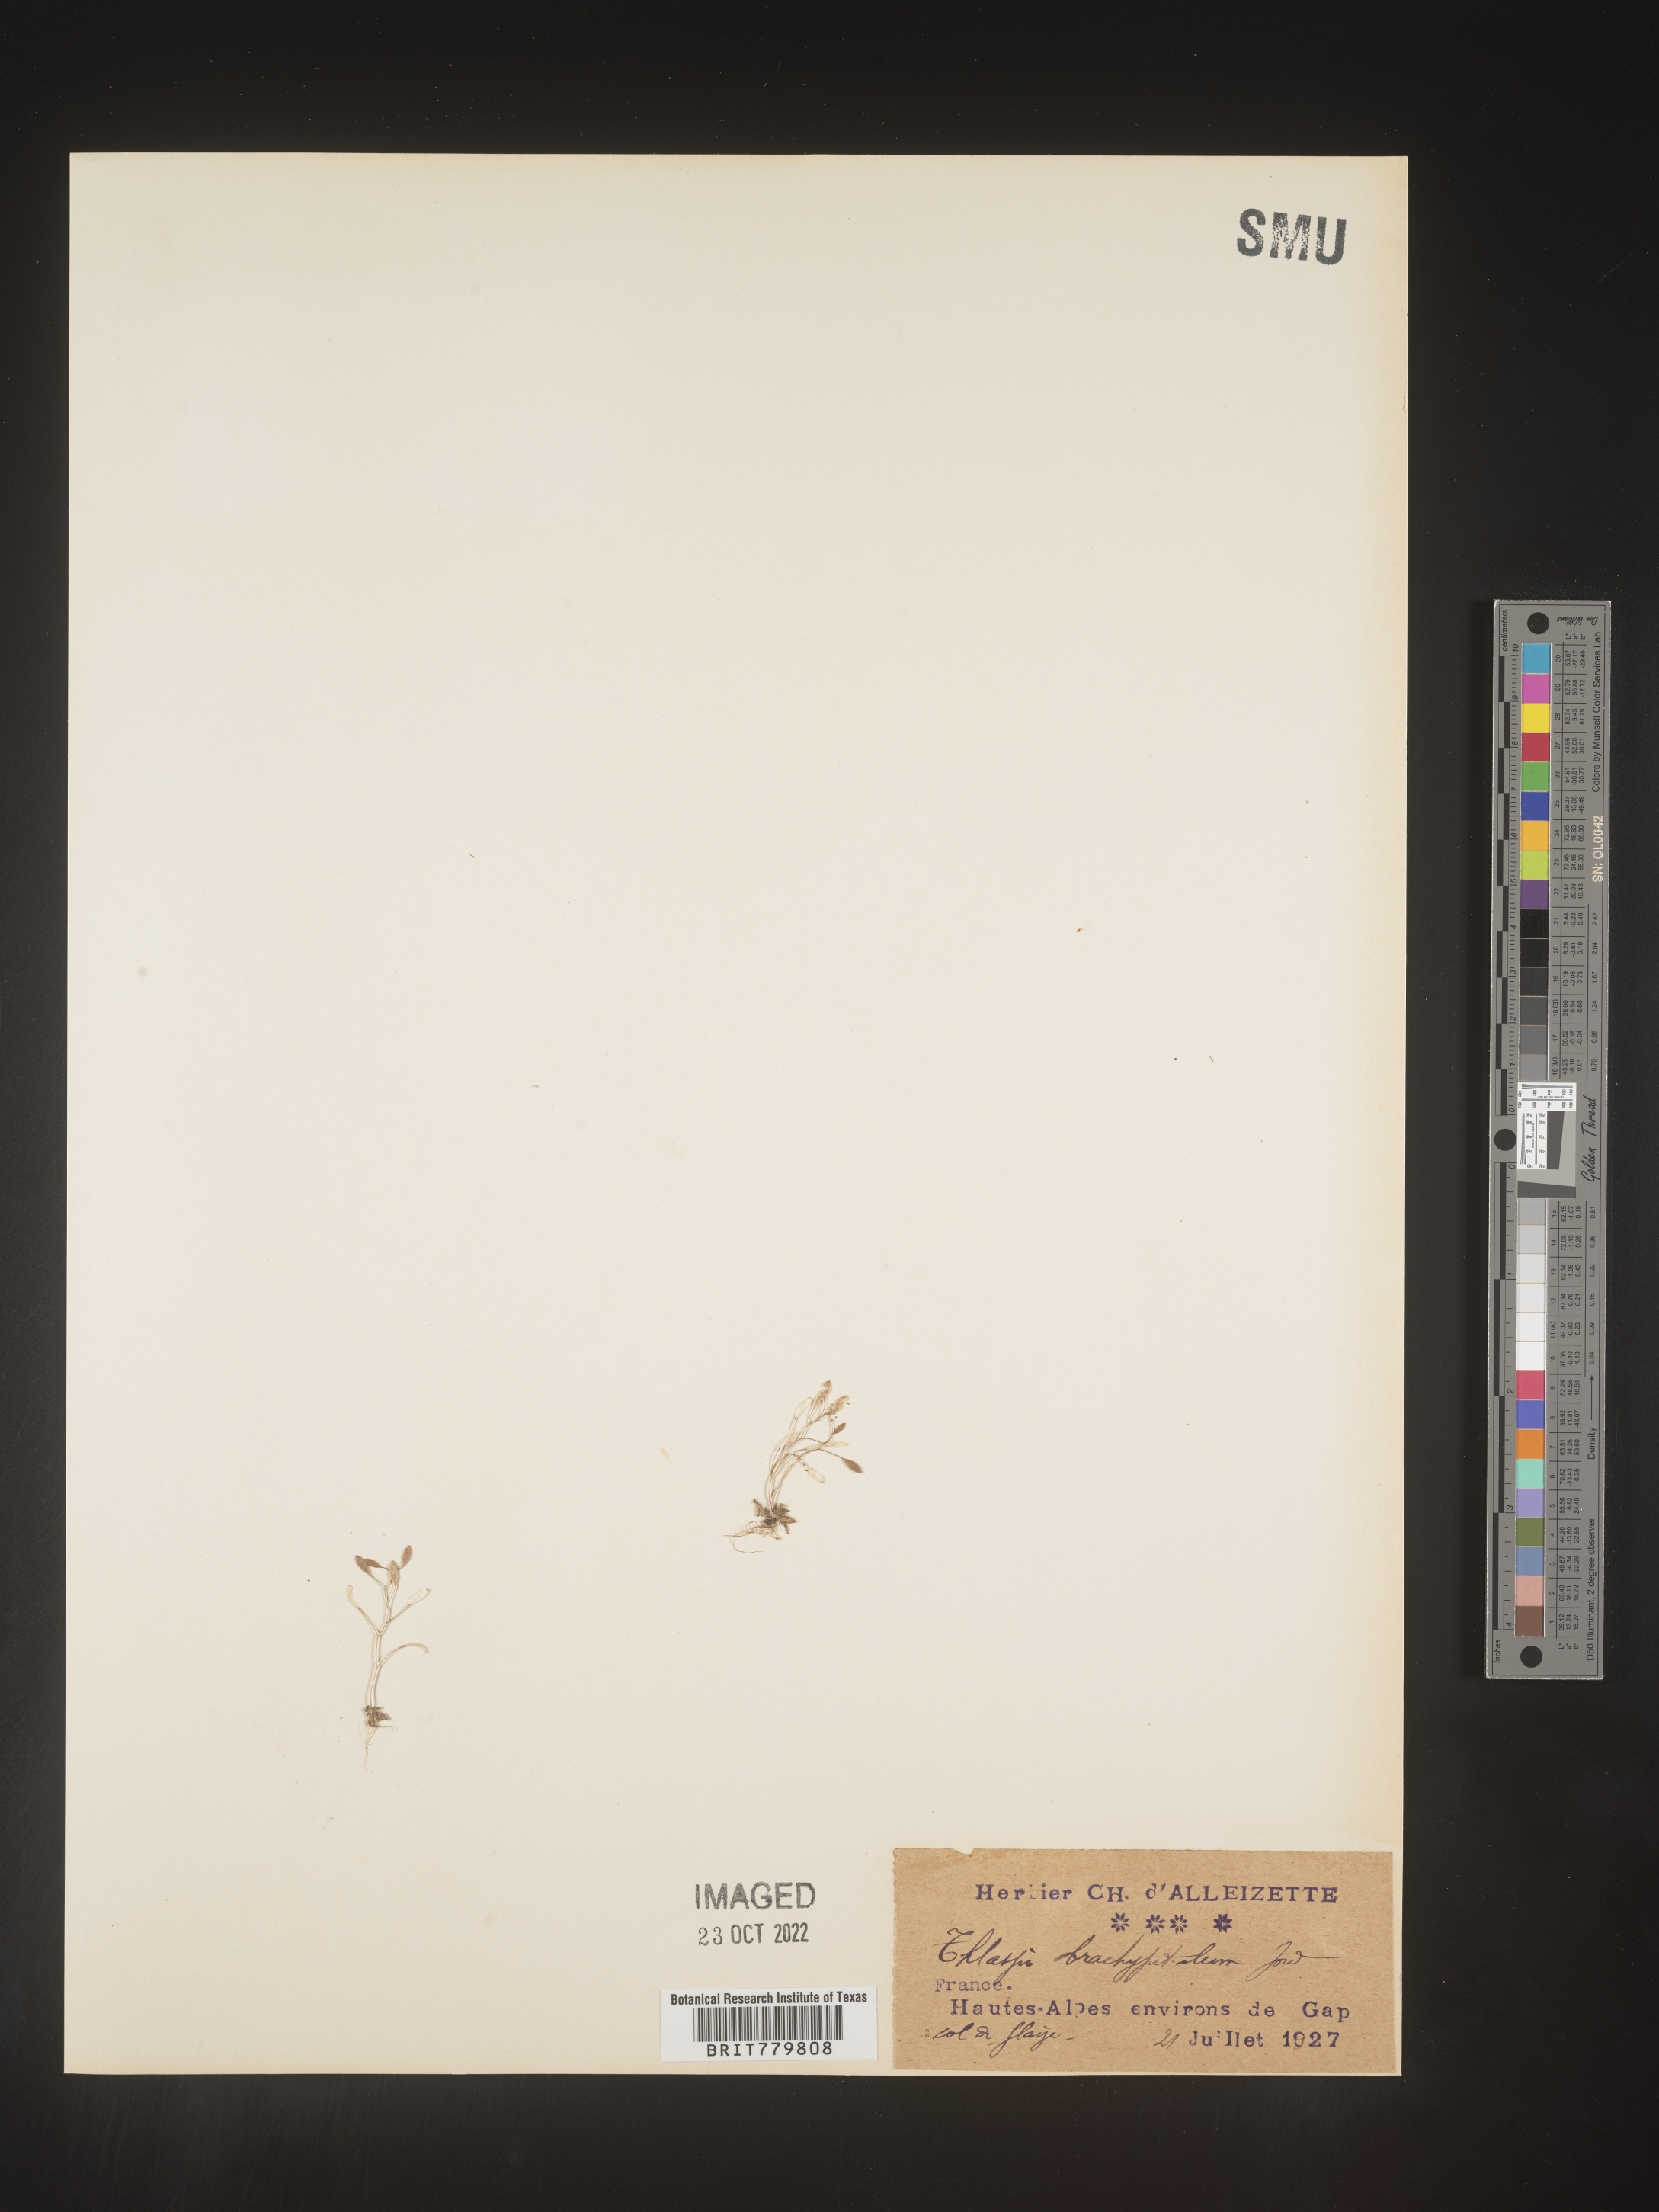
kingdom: Plantae
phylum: Tracheophyta
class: Magnoliopsida
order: Brassicales
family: Brassicaceae
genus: Thlaspi
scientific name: Thlaspi
